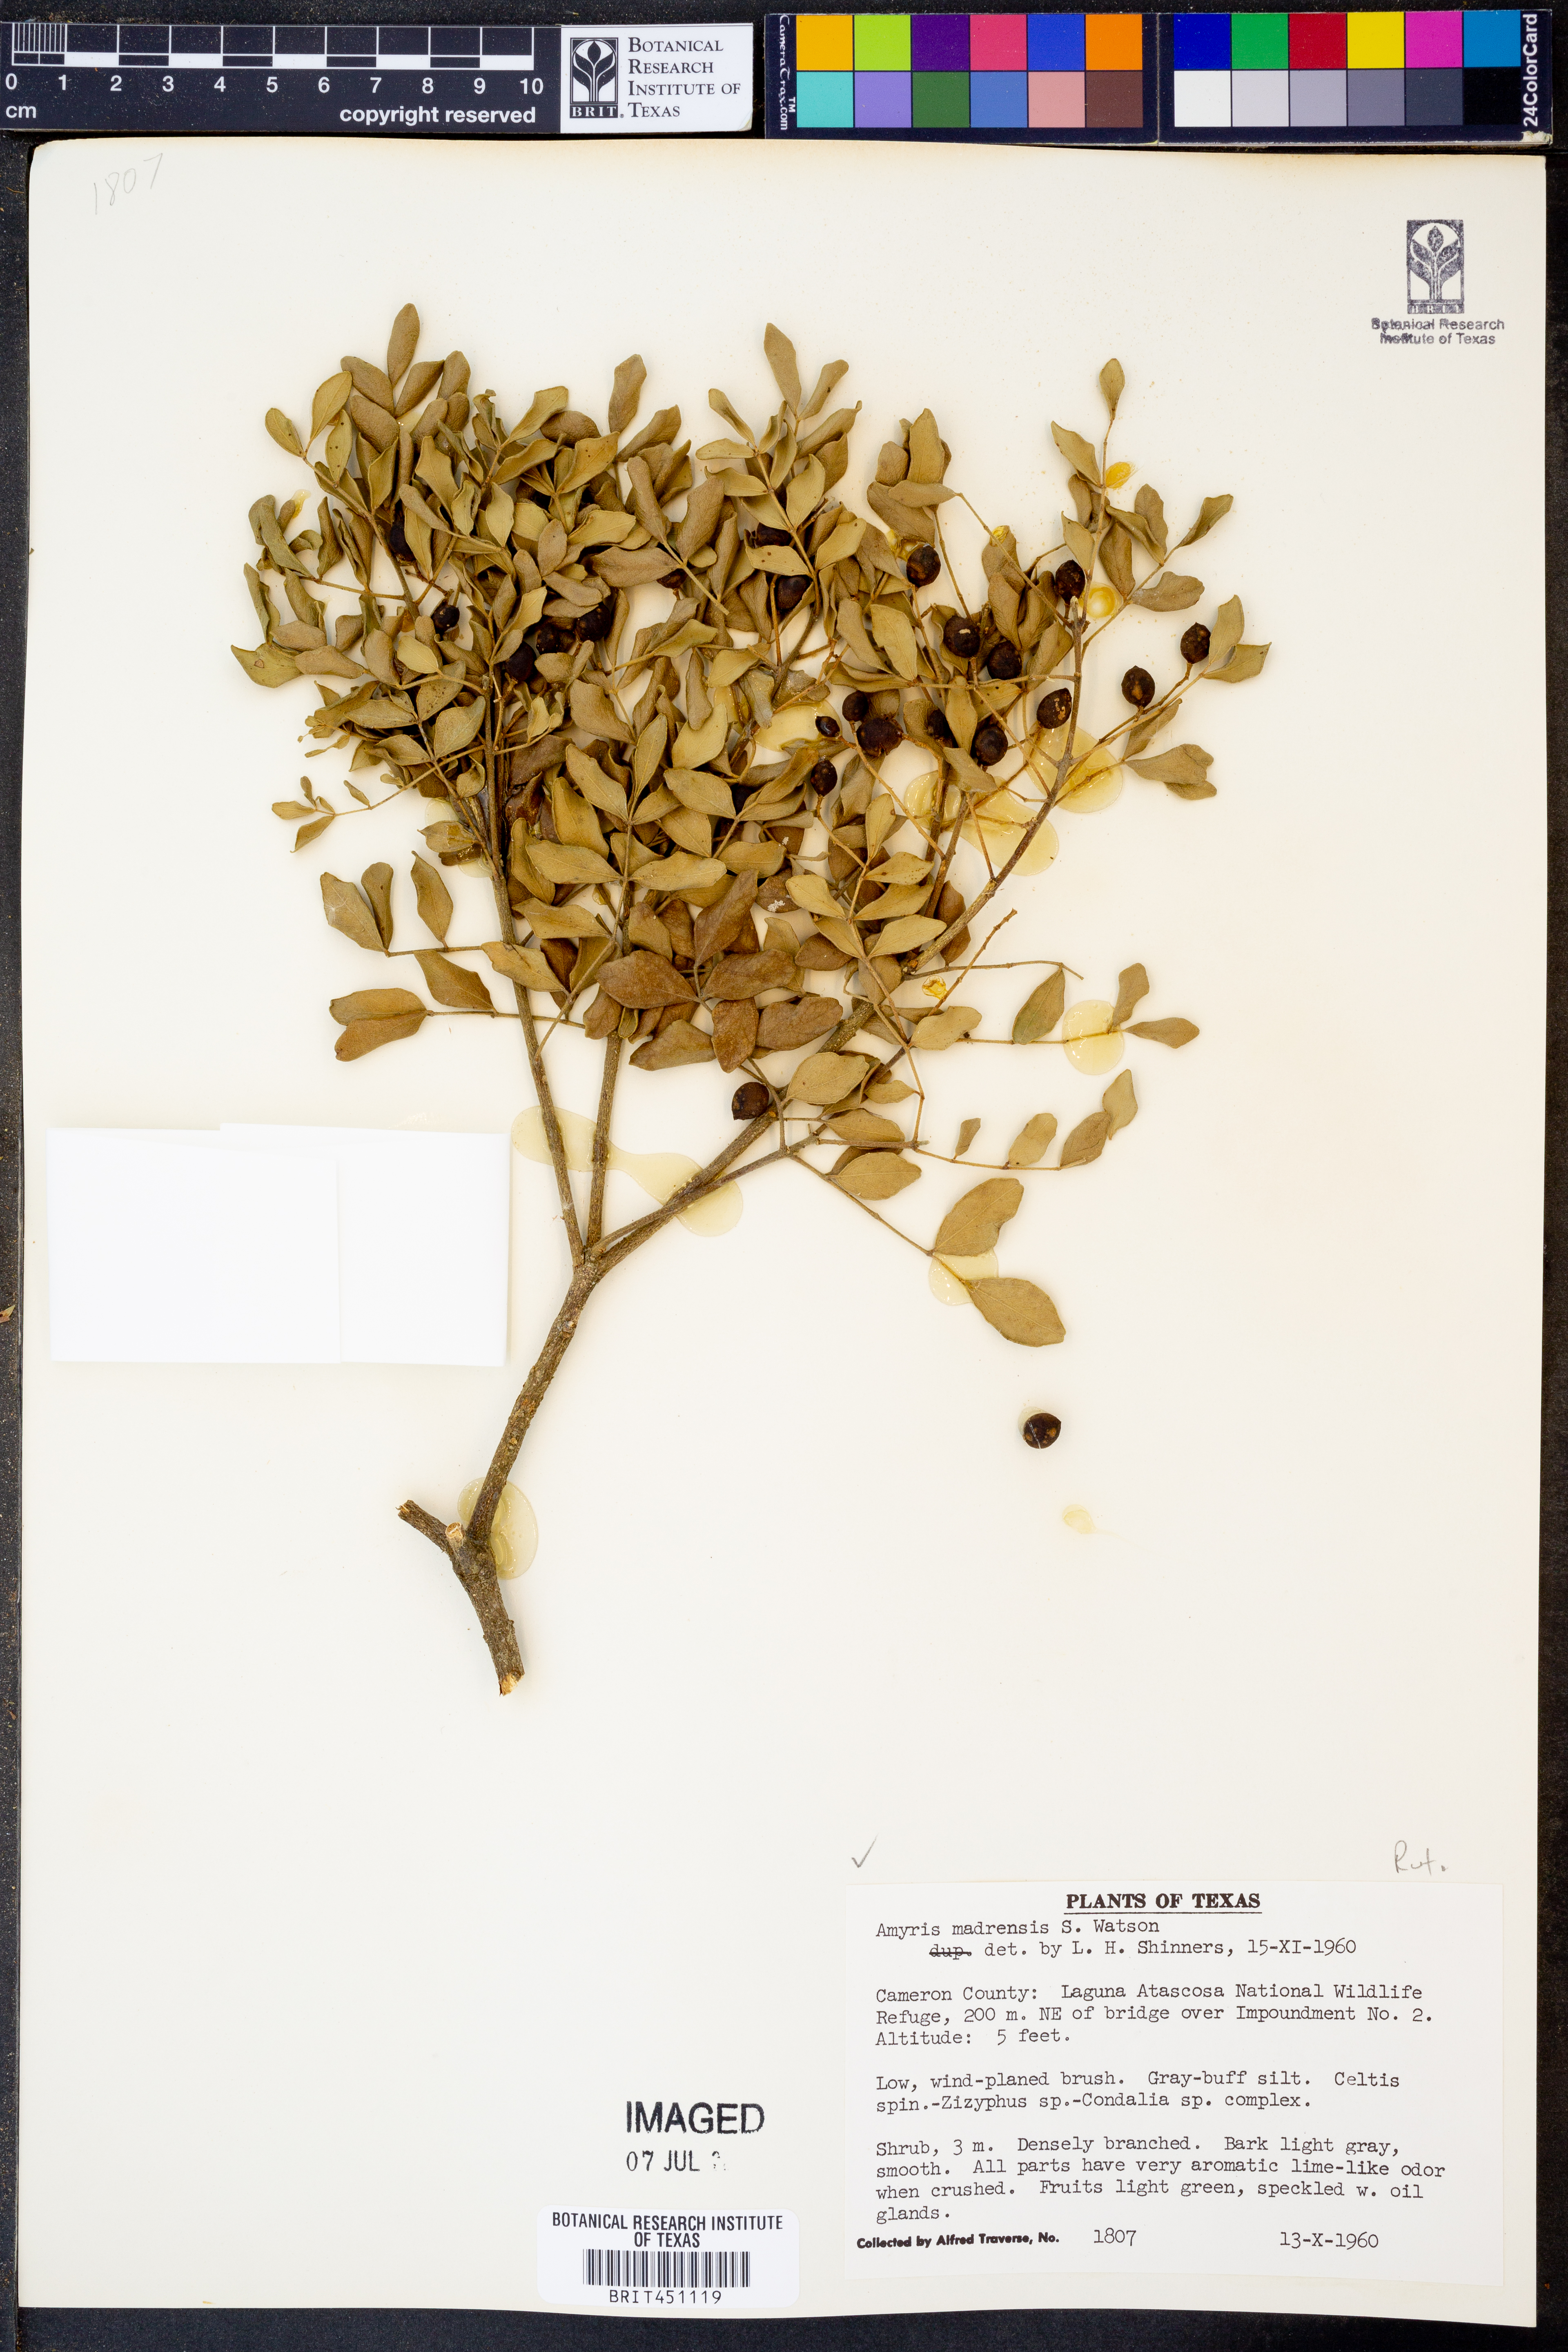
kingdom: Plantae
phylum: Tracheophyta
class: Magnoliopsida
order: Sapindales
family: Rutaceae
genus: Amyris
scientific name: Amyris madrensis
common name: Mountain torchwood
